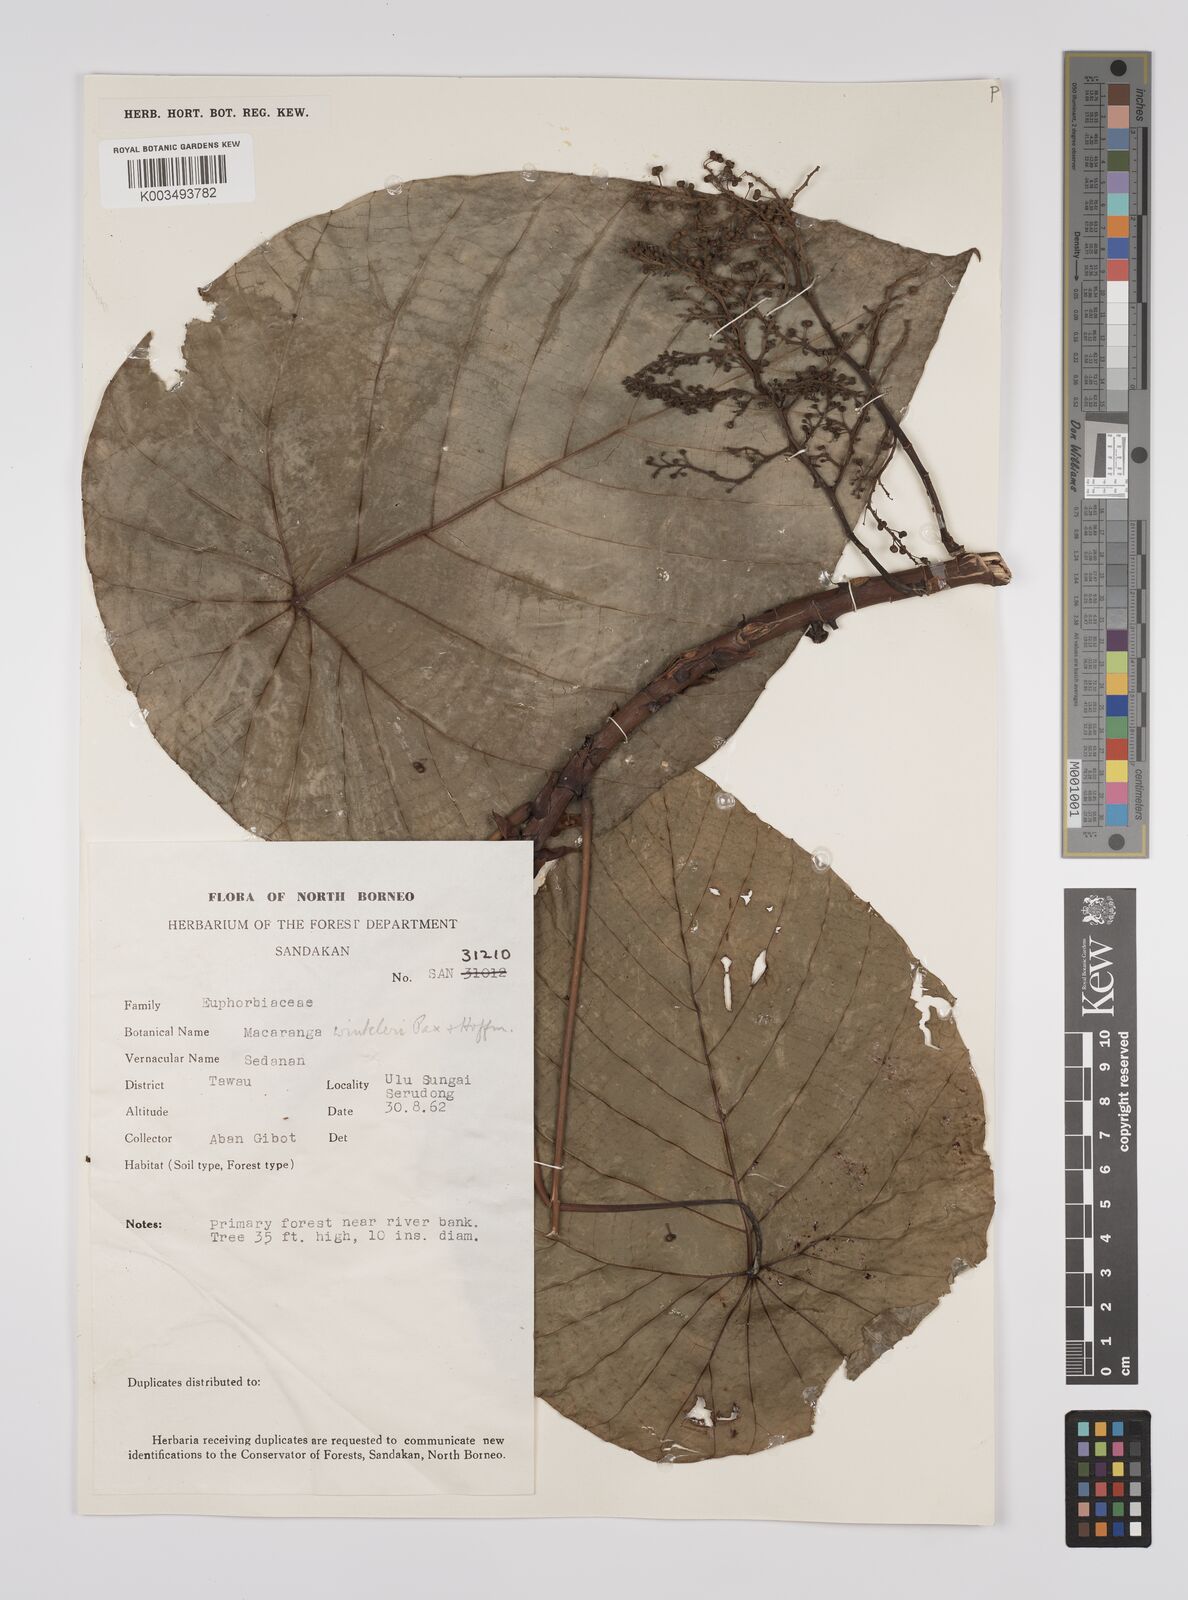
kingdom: Plantae
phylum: Tracheophyta
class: Magnoliopsida
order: Malpighiales
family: Euphorbiaceae
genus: Macaranga
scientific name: Macaranga winkleri
